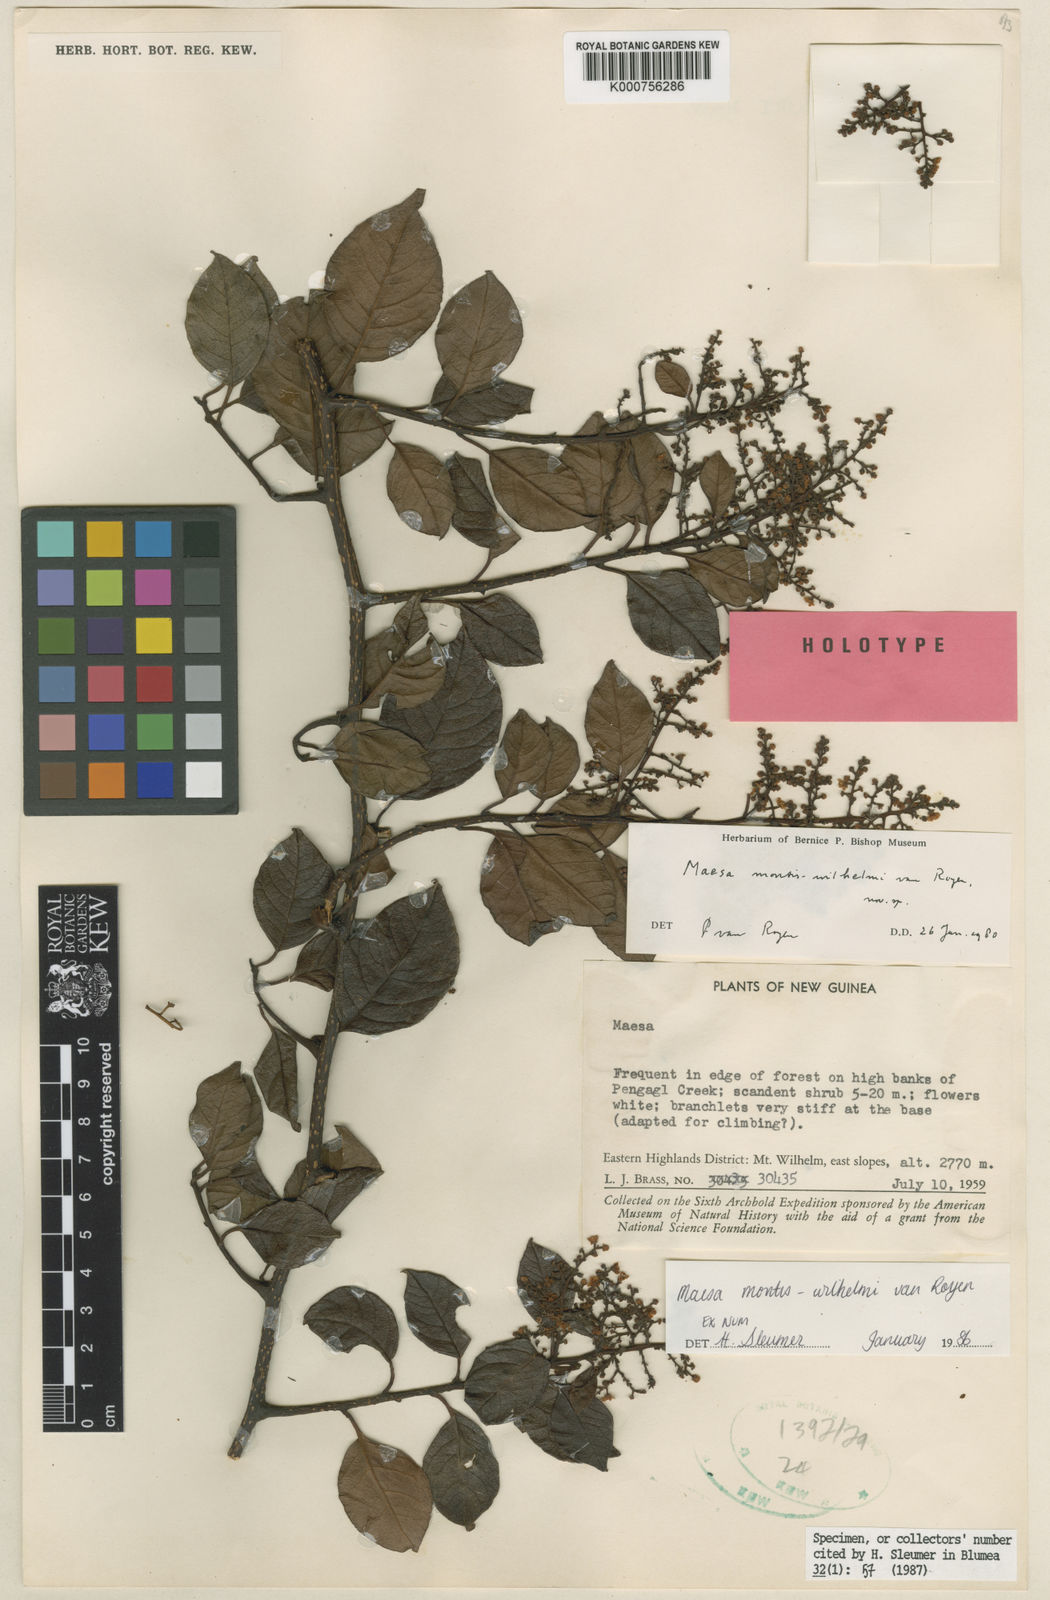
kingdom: Plantae
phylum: Tracheophyta
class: Magnoliopsida
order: Ericales
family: Primulaceae
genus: Maesa
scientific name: Maesa montis-wilhelmi
